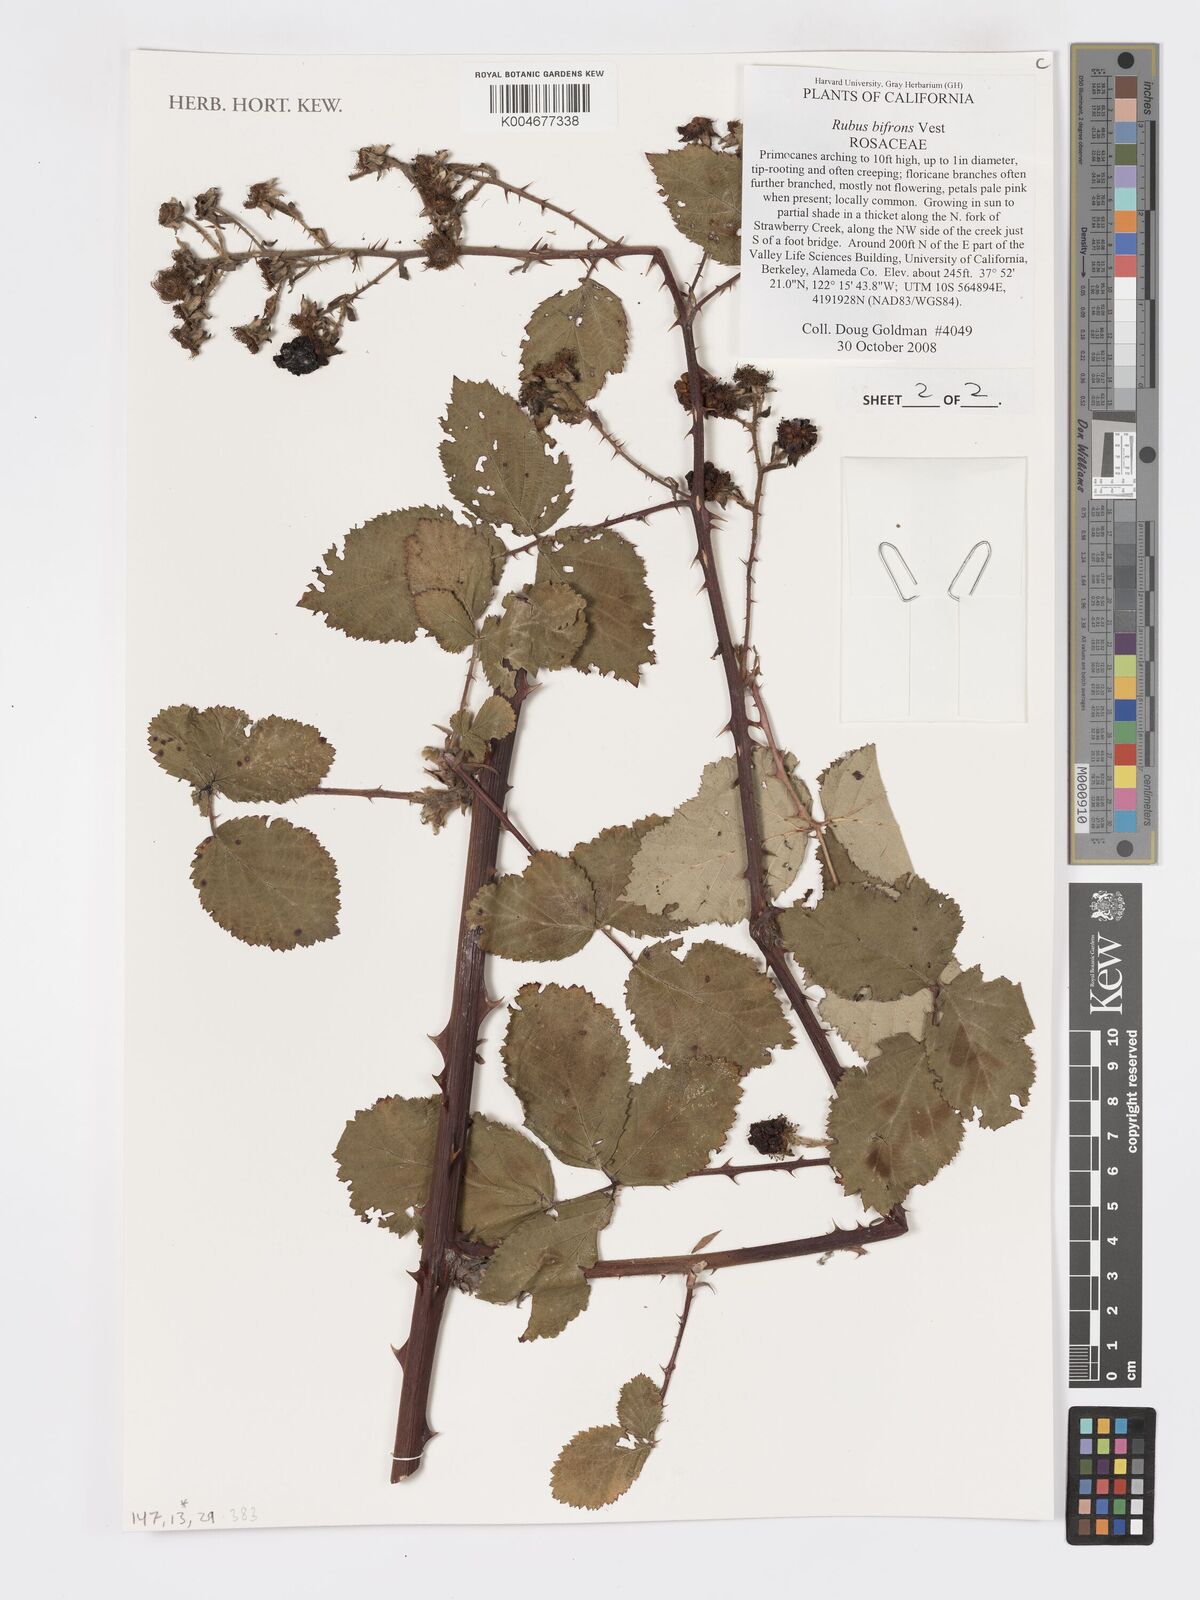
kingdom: Plantae
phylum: Tracheophyta
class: Magnoliopsida
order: Rosales
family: Rosaceae
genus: Rubus
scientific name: Rubus bifrons
